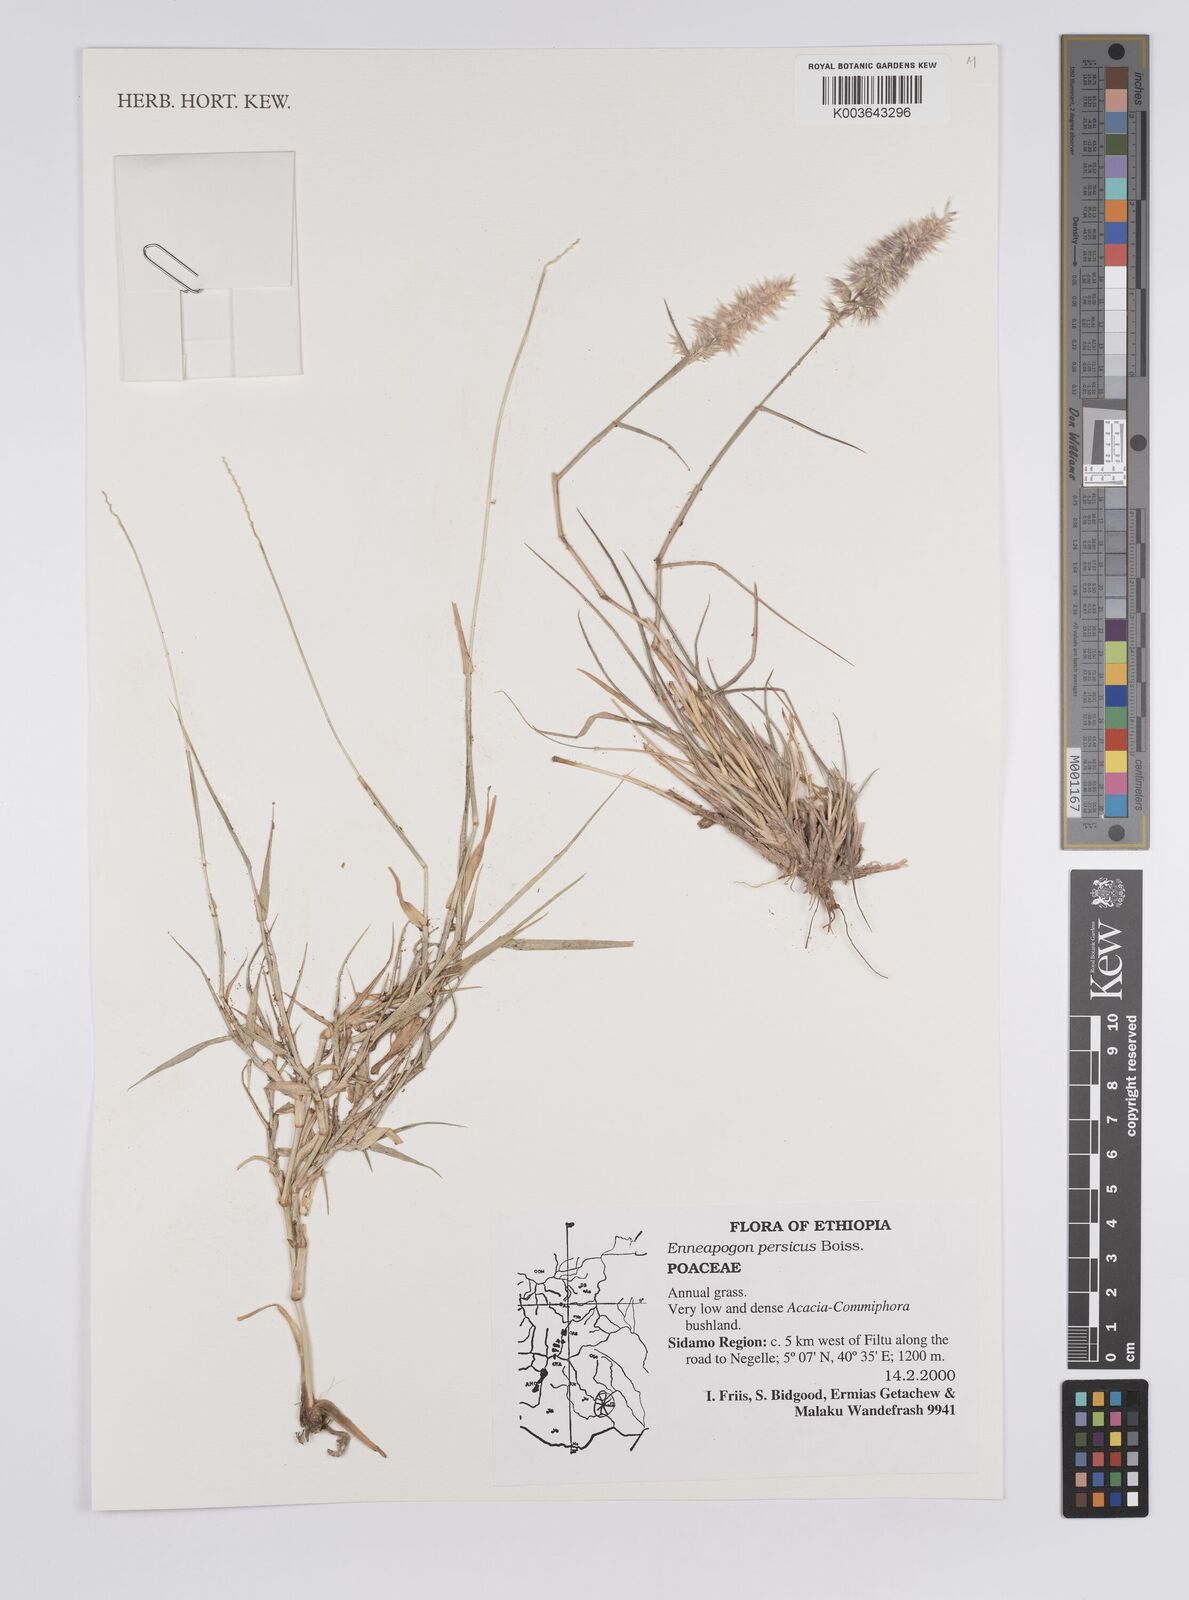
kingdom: Plantae
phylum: Tracheophyta
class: Liliopsida
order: Poales
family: Poaceae
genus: Enneapogon
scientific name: Enneapogon persicus
